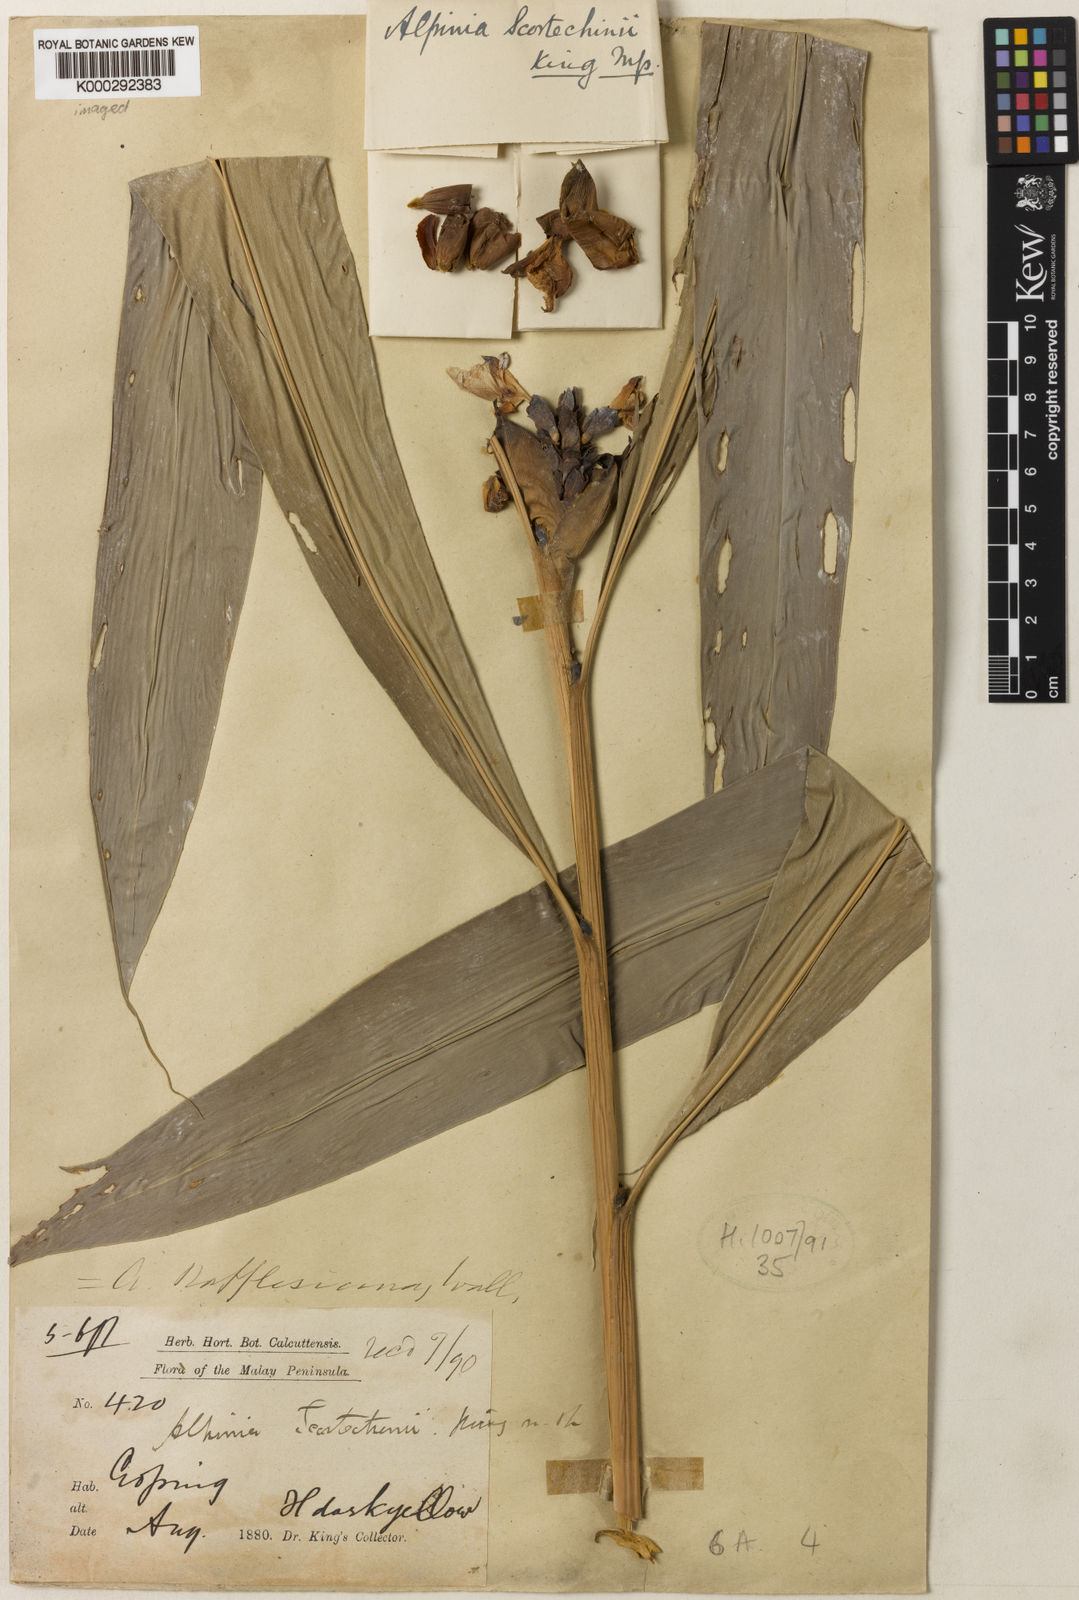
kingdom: Plantae
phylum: Tracheophyta
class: Liliopsida
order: Zingiberales
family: Zingiberaceae
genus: Alpinia
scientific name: Alpinia rafflesiana
